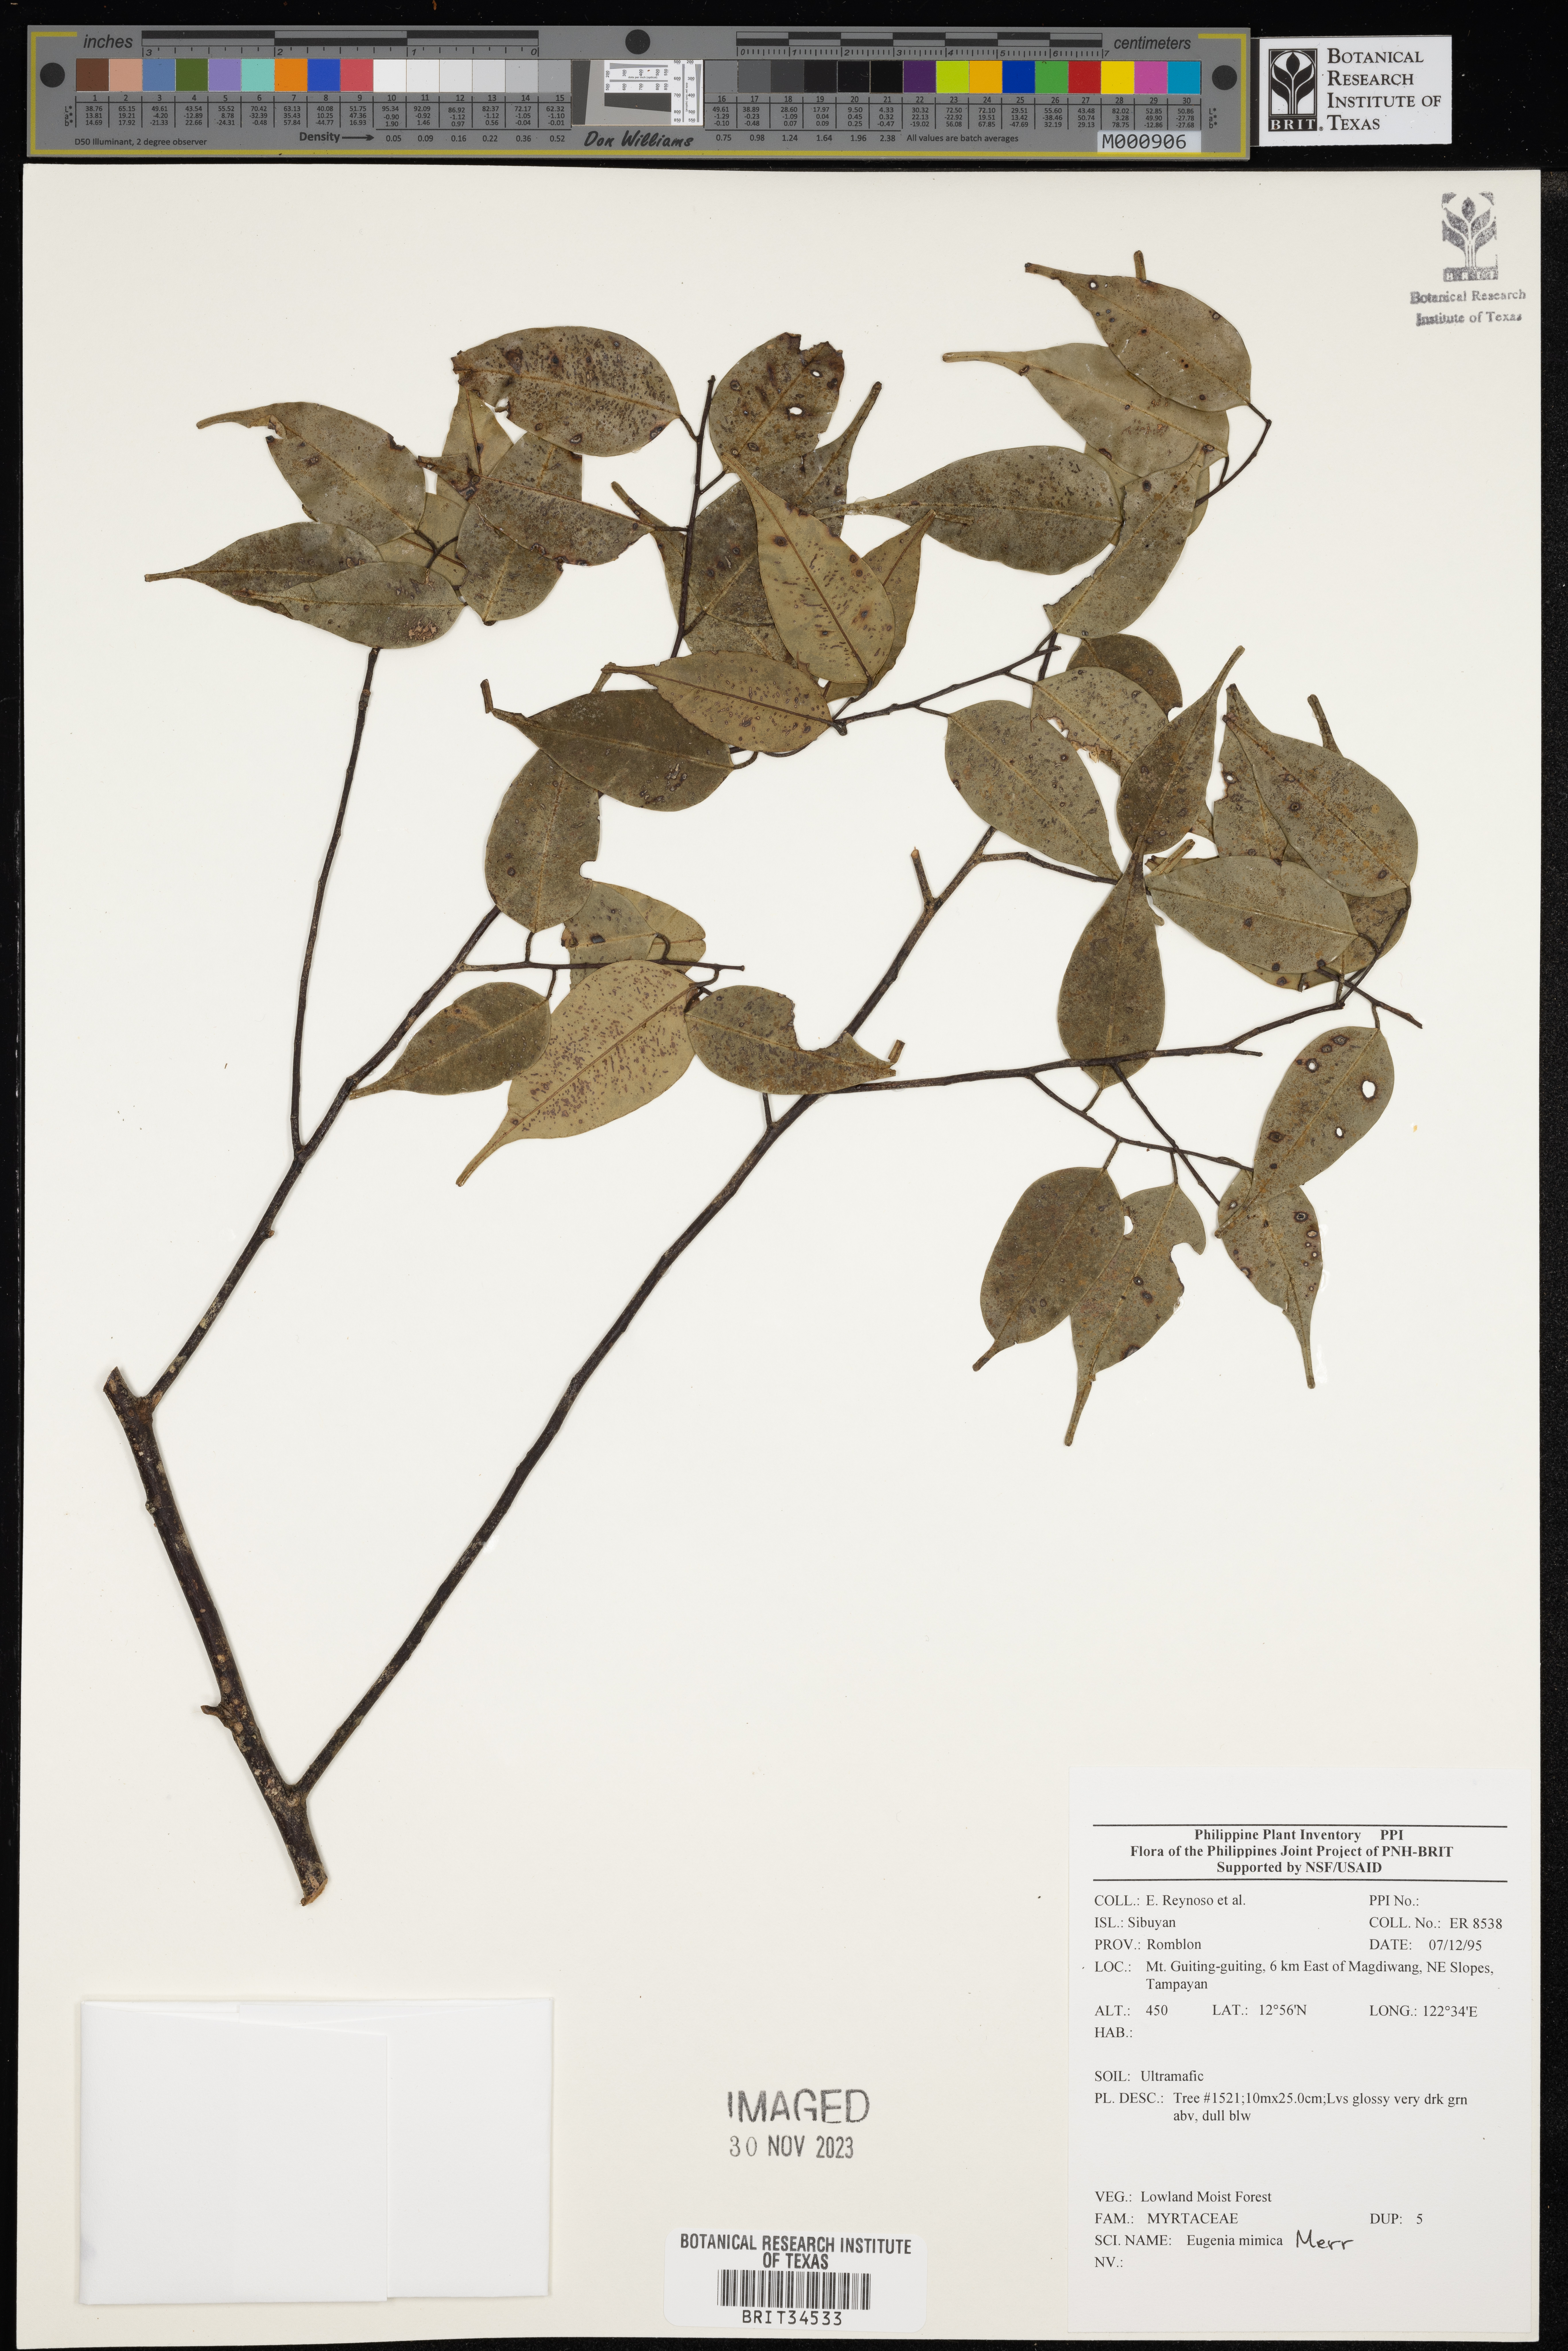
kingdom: Plantae
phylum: Tracheophyta
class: Magnoliopsida
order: Myrtales
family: Myrtaceae
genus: Eugenia
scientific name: Eugenia
